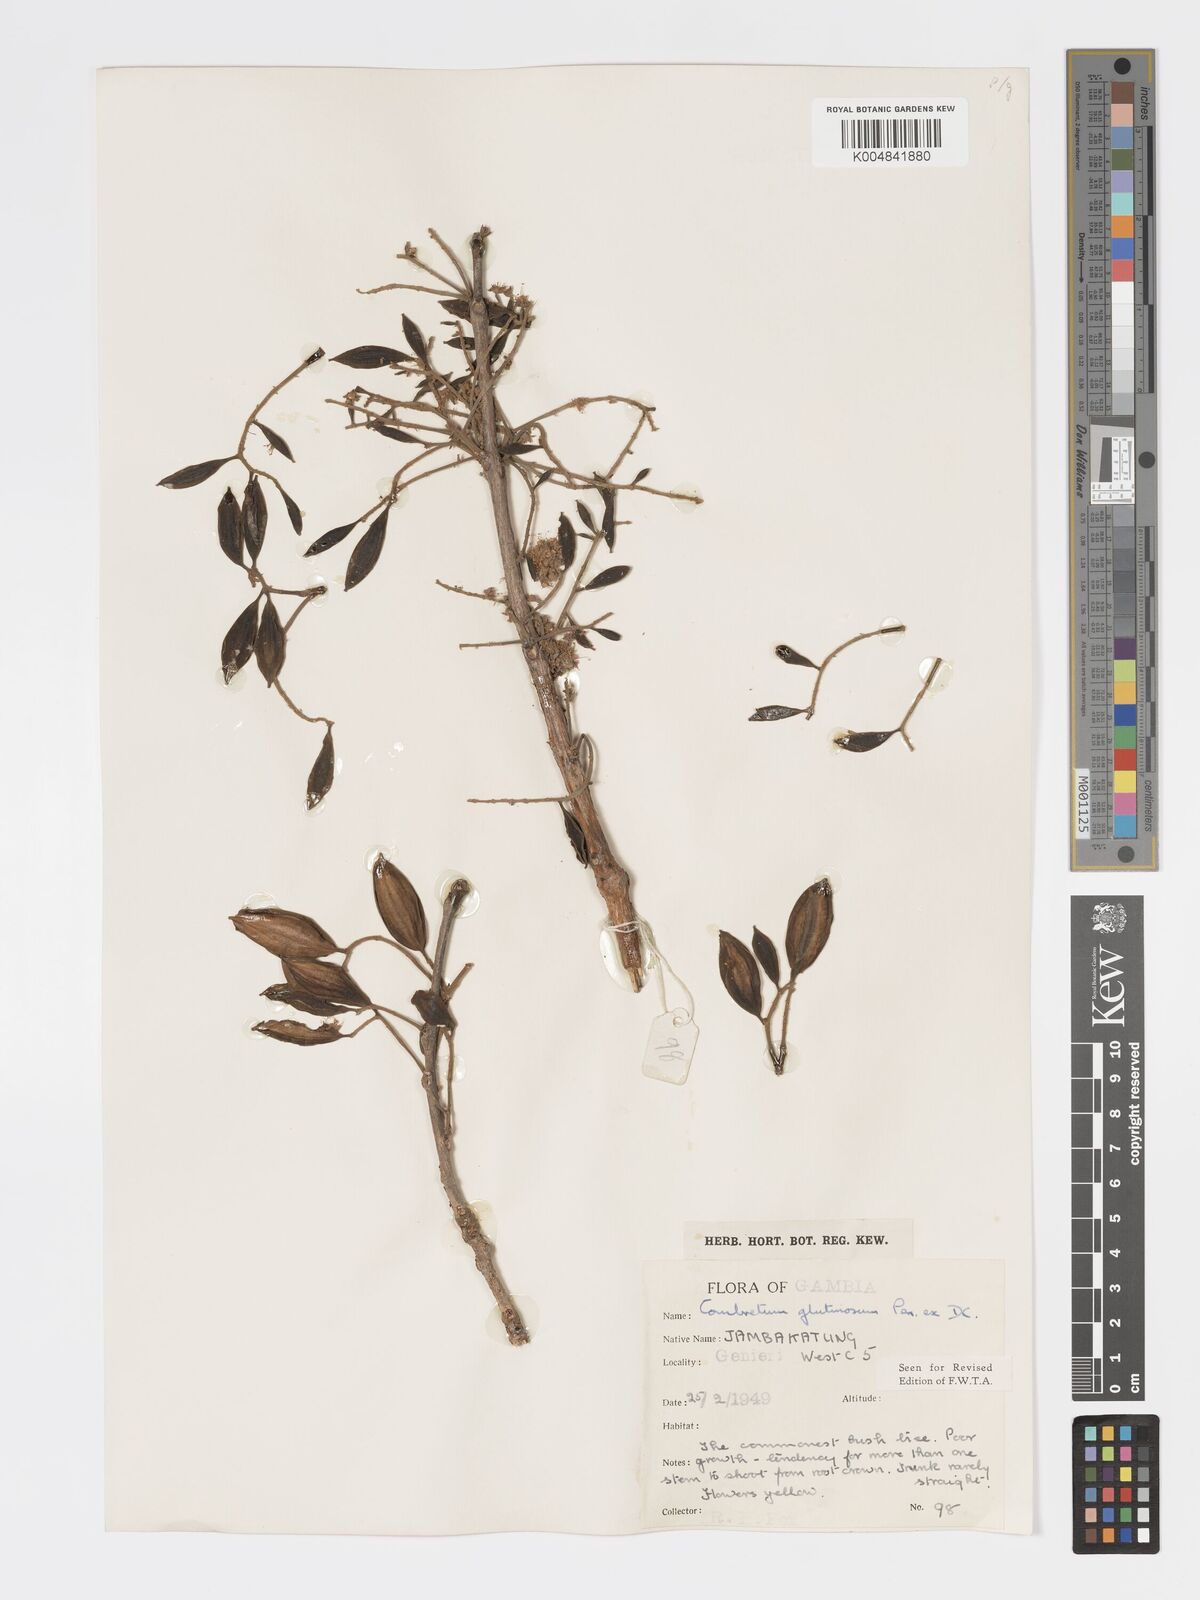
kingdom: Plantae
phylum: Tracheophyta
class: Magnoliopsida
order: Myrtales
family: Combretaceae
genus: Combretum
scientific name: Combretum
